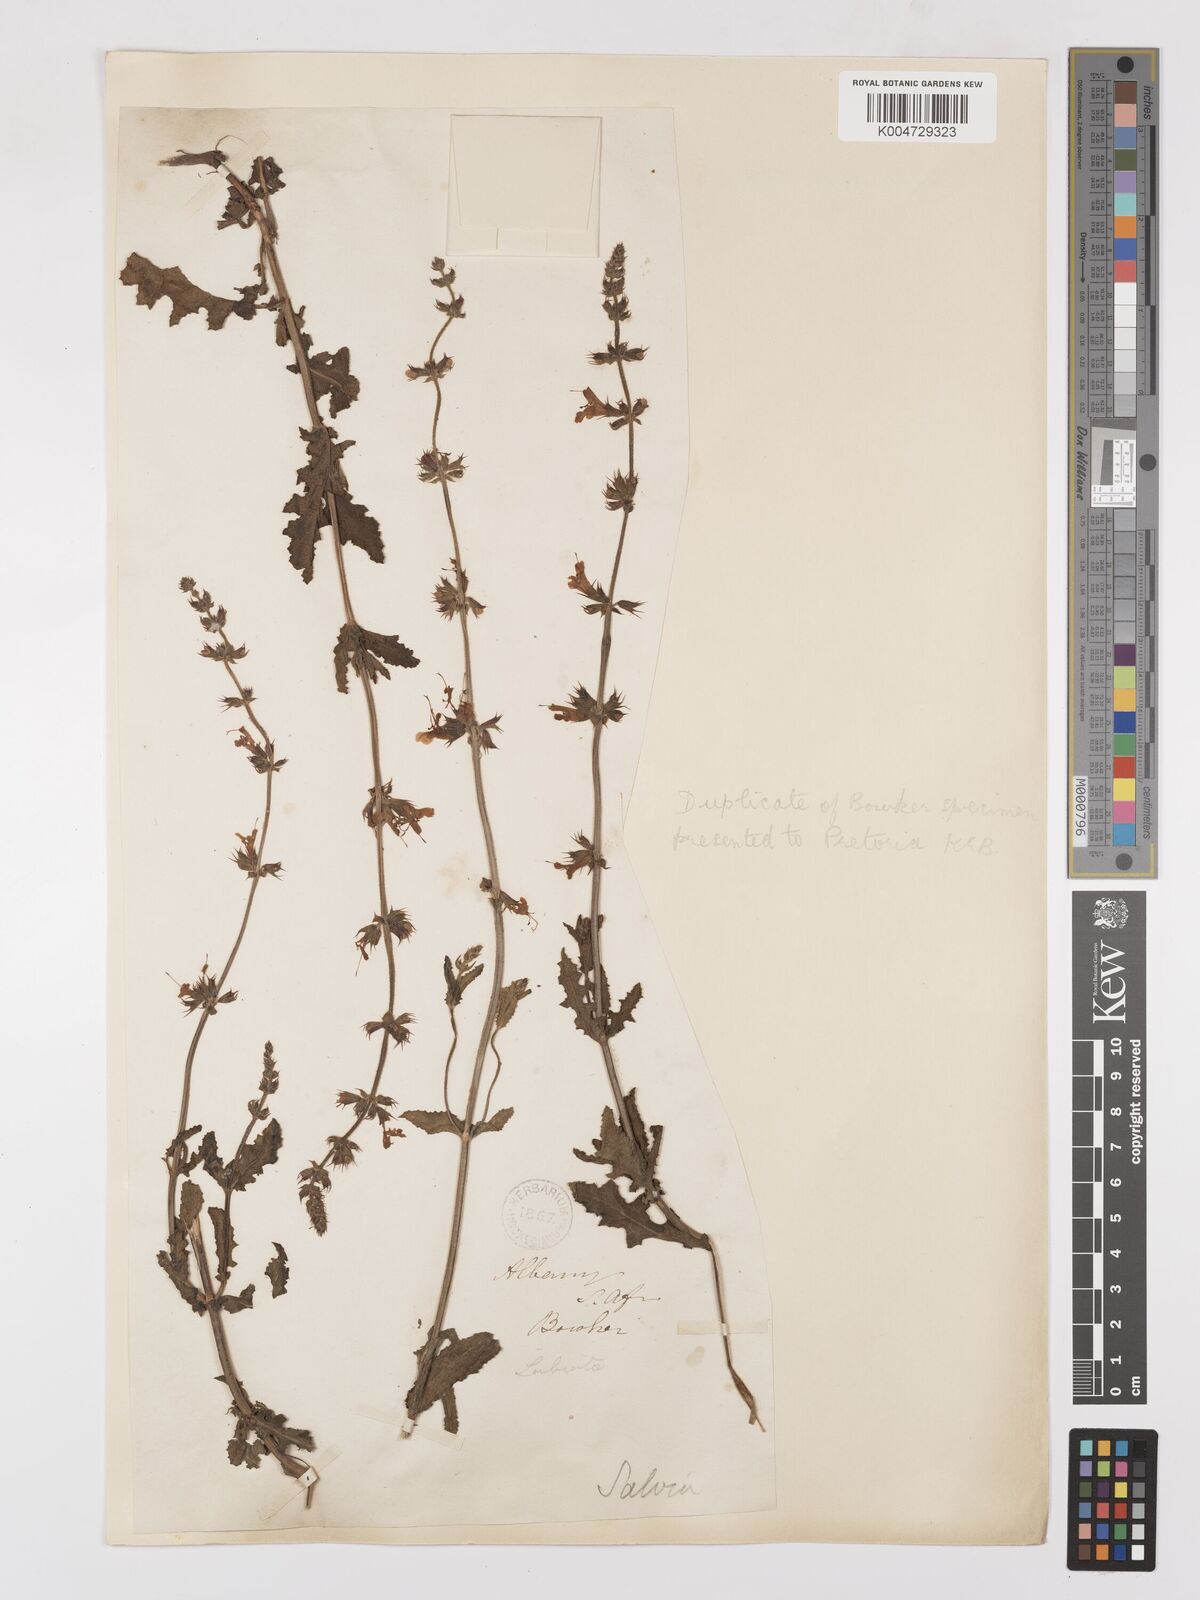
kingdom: Plantae
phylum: Tracheophyta
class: Magnoliopsida
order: Lamiales
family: Lamiaceae
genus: Salvia
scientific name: Salvia runcinata
